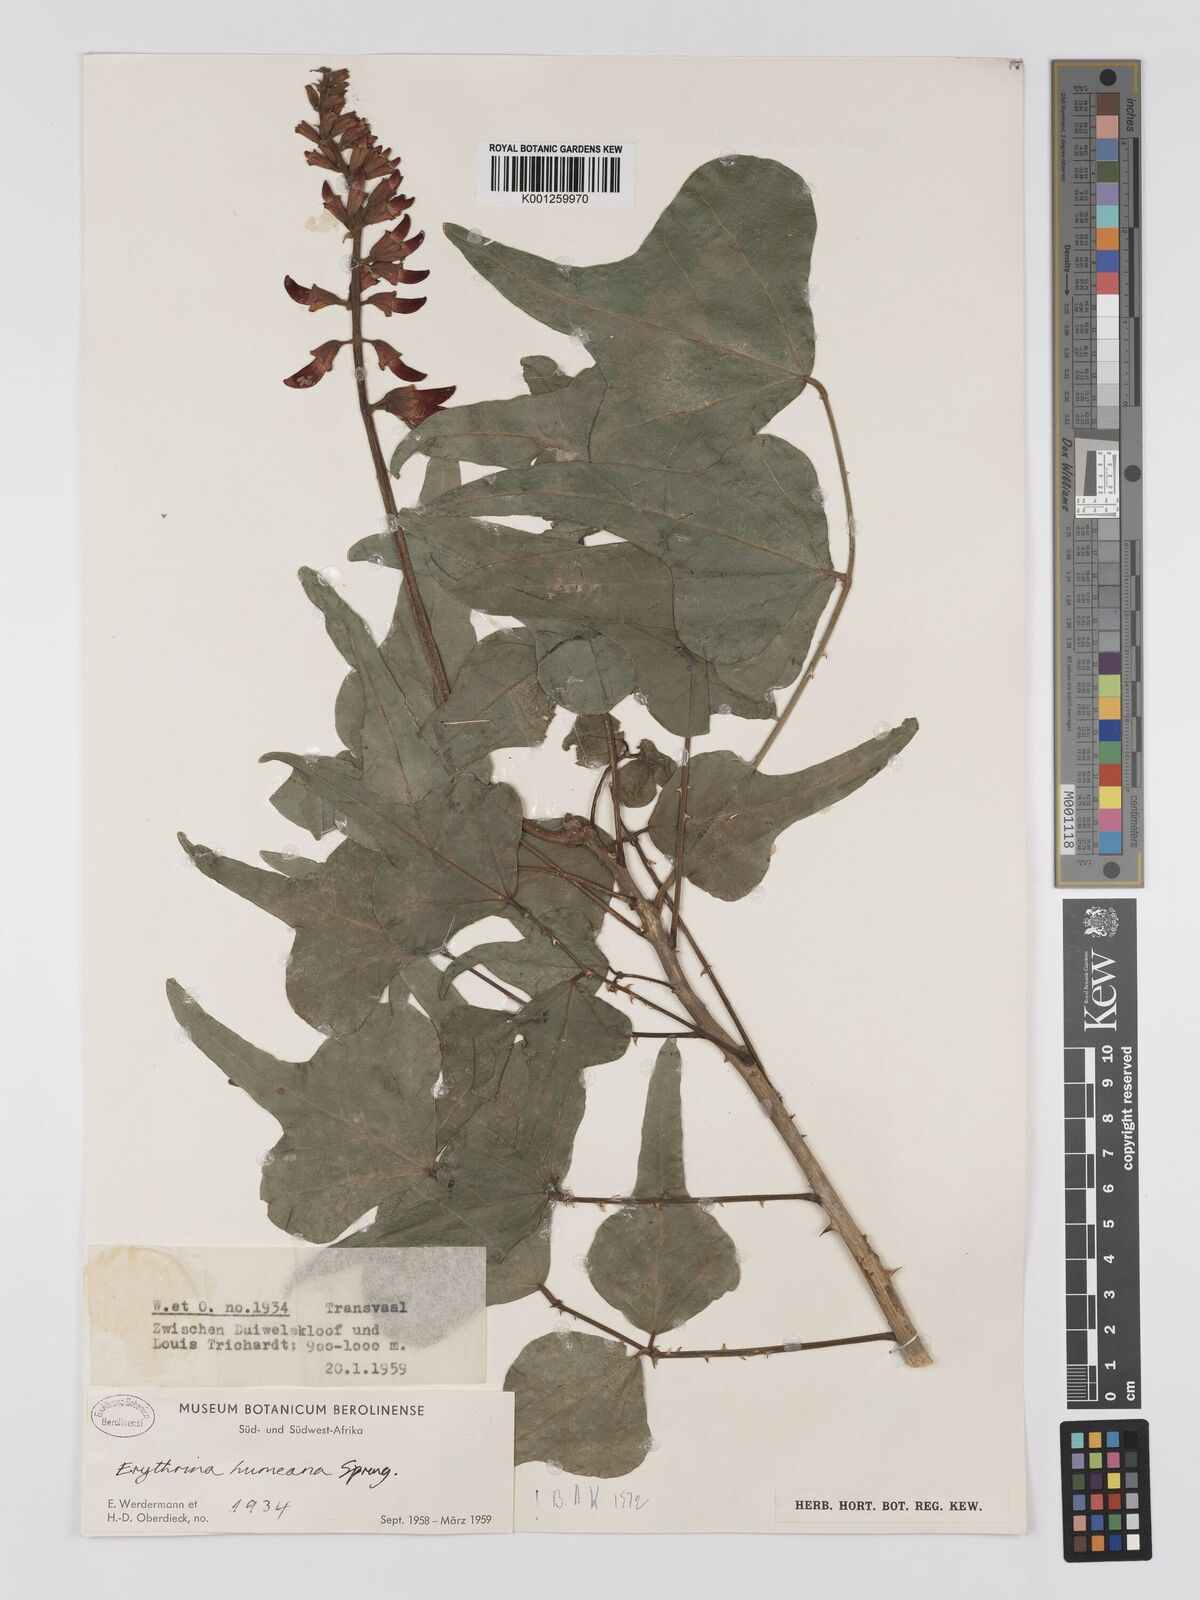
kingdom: Plantae
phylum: Tracheophyta
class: Magnoliopsida
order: Fabales
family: Fabaceae
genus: Erythrina
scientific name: Erythrina humeana
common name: Dwarf coral tree
